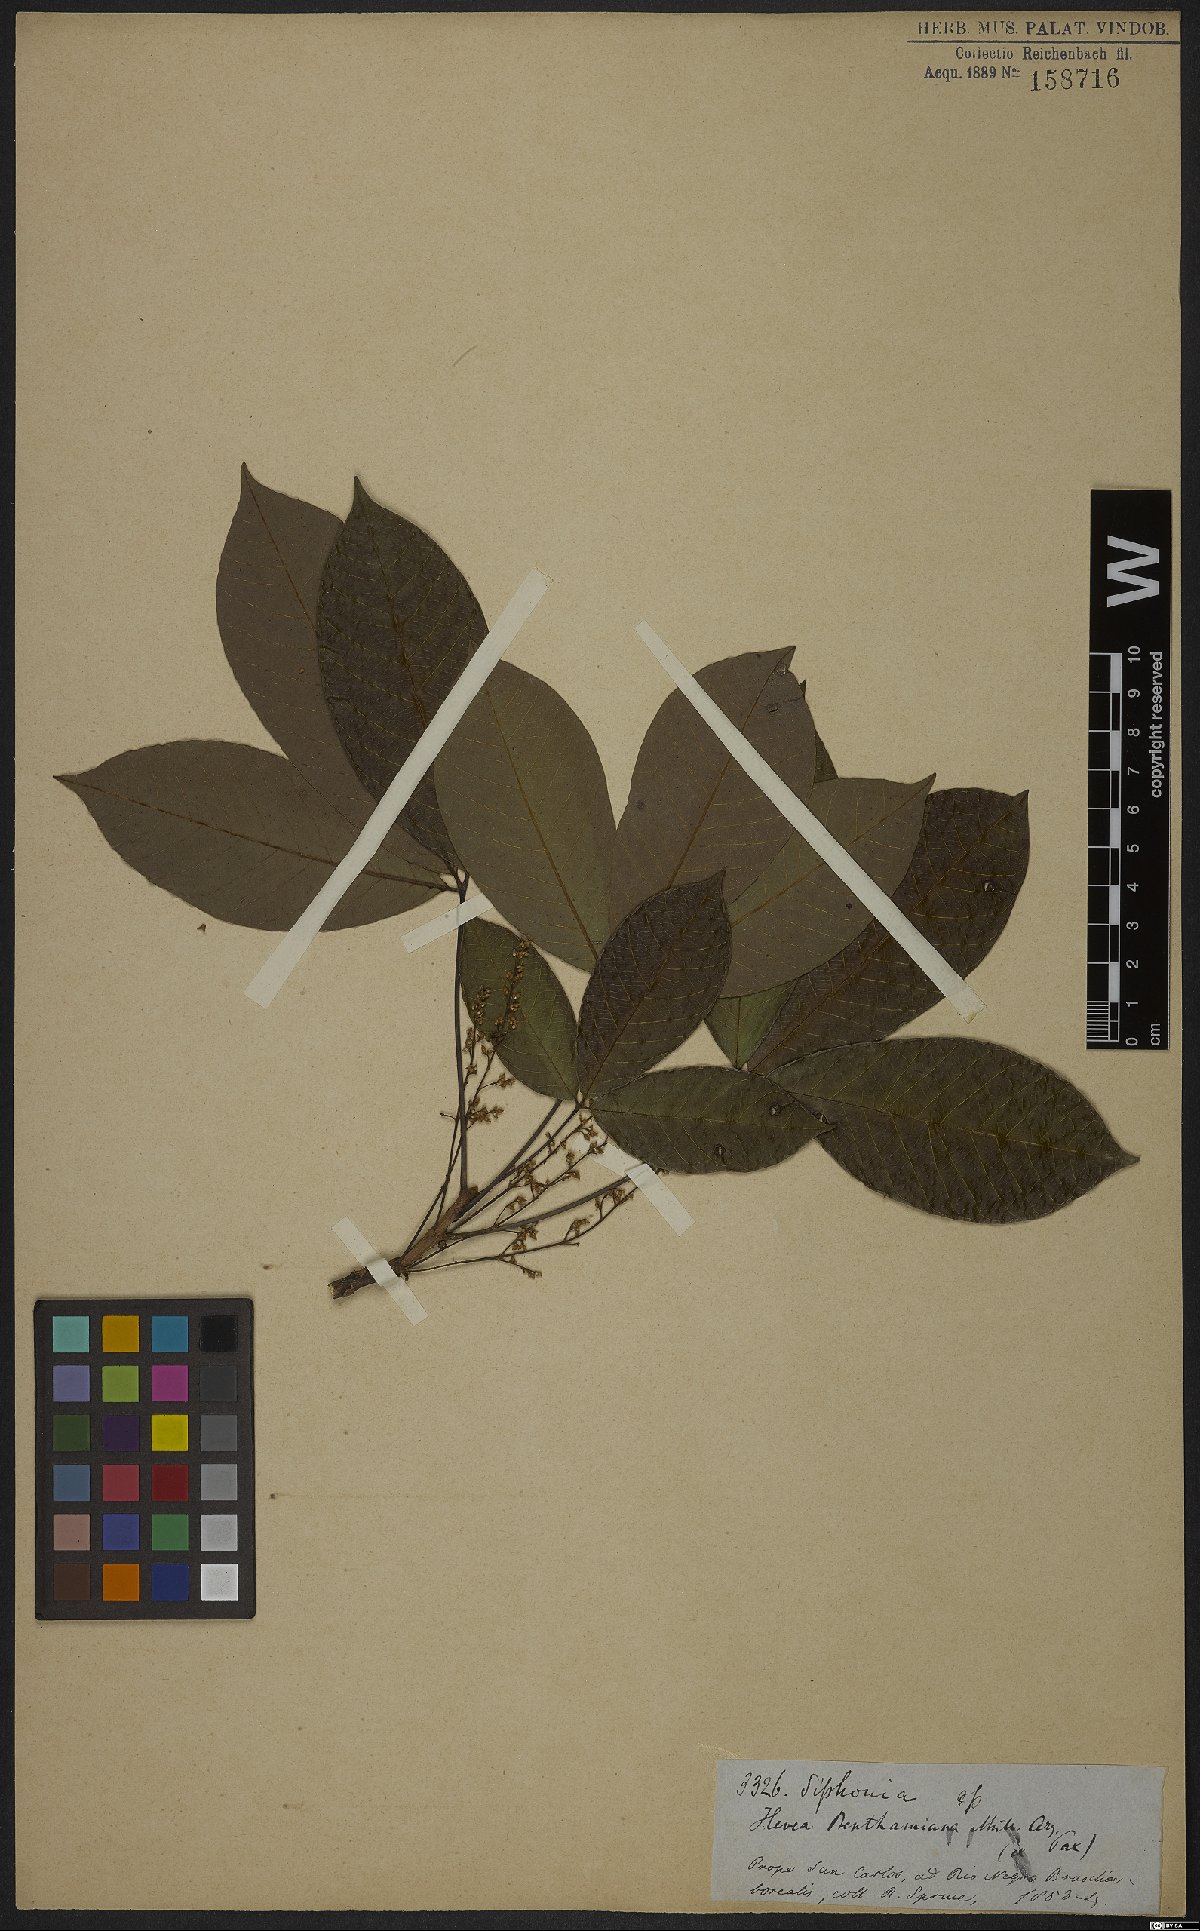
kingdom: Plantae
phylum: Tracheophyta
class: Magnoliopsida
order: Malpighiales
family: Euphorbiaceae
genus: Hevea
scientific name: Hevea benthamiana
